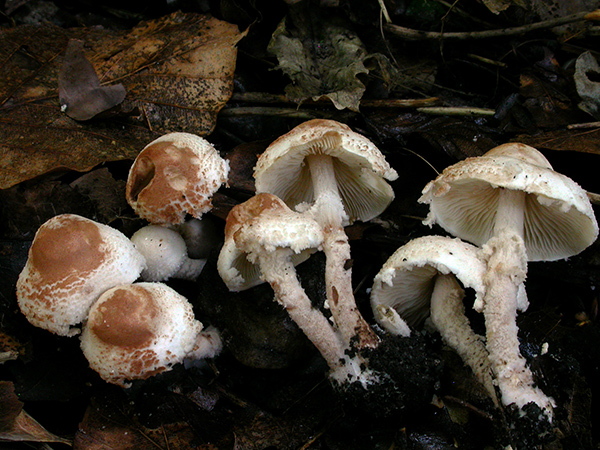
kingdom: Fungi
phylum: Basidiomycota
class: Agaricomycetes
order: Agaricales
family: Agaricaceae
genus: Cystolepiota
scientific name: Cystolepiota hetieri
